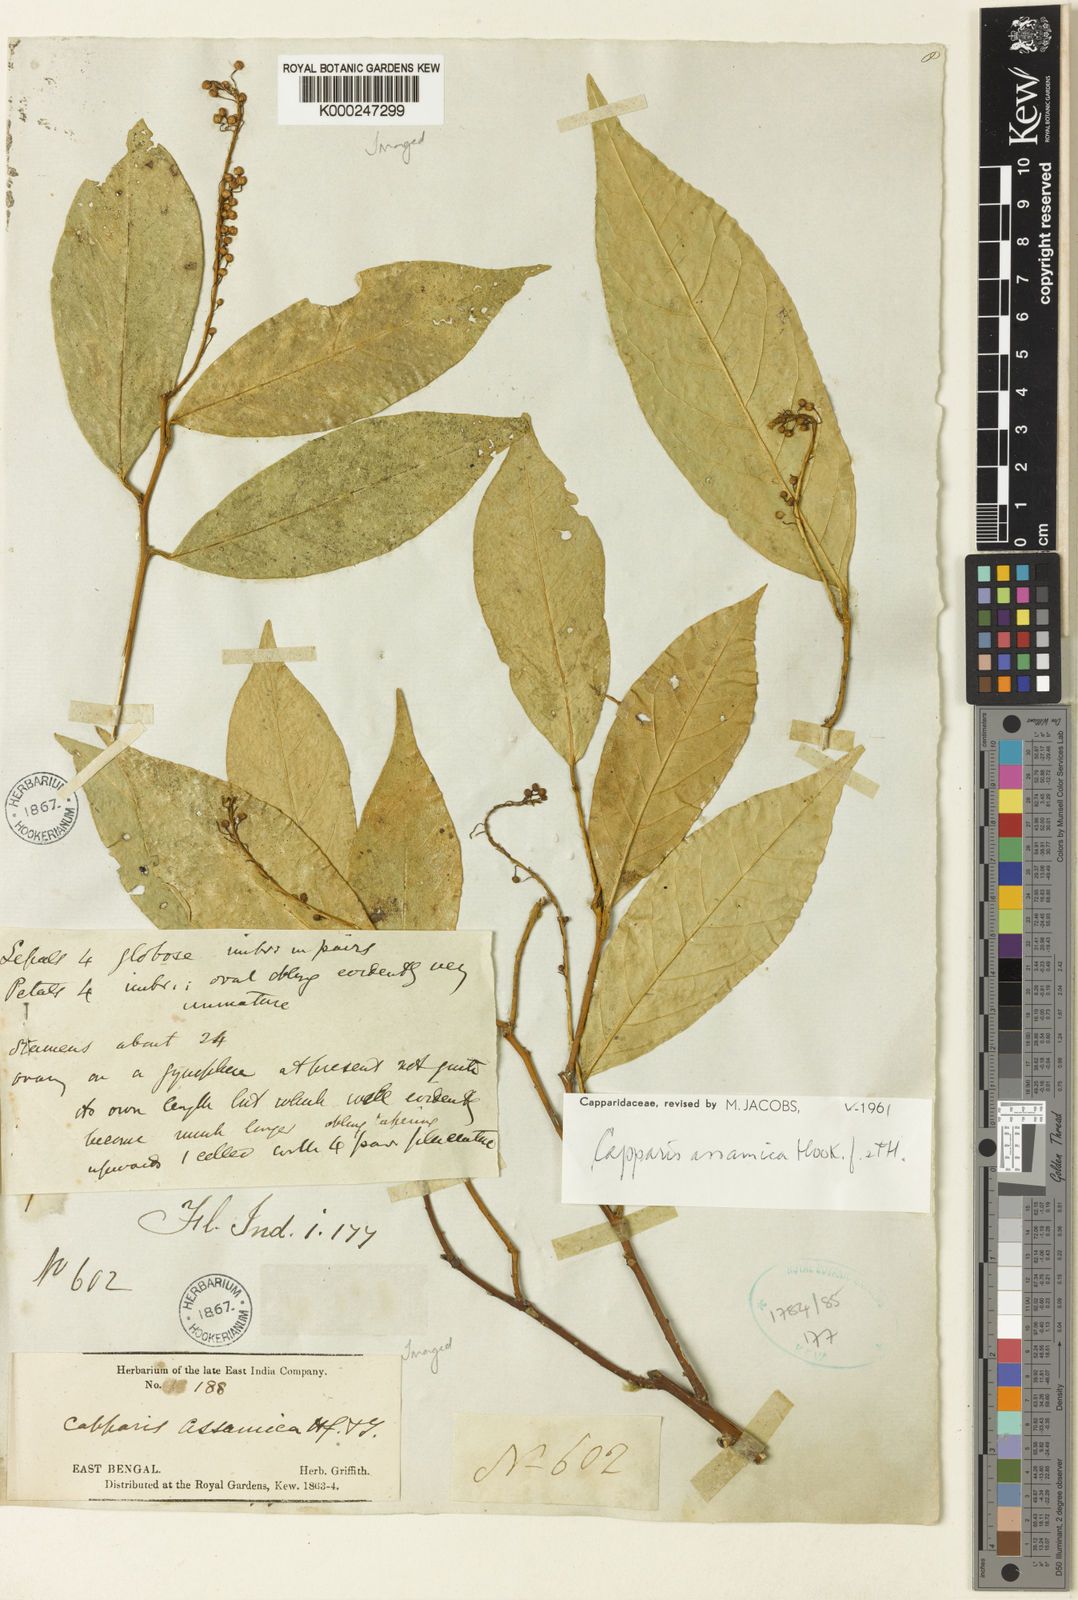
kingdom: Plantae
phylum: Tracheophyta
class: Magnoliopsida
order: Brassicales
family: Capparaceae
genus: Capparis
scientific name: Capparis assamica
